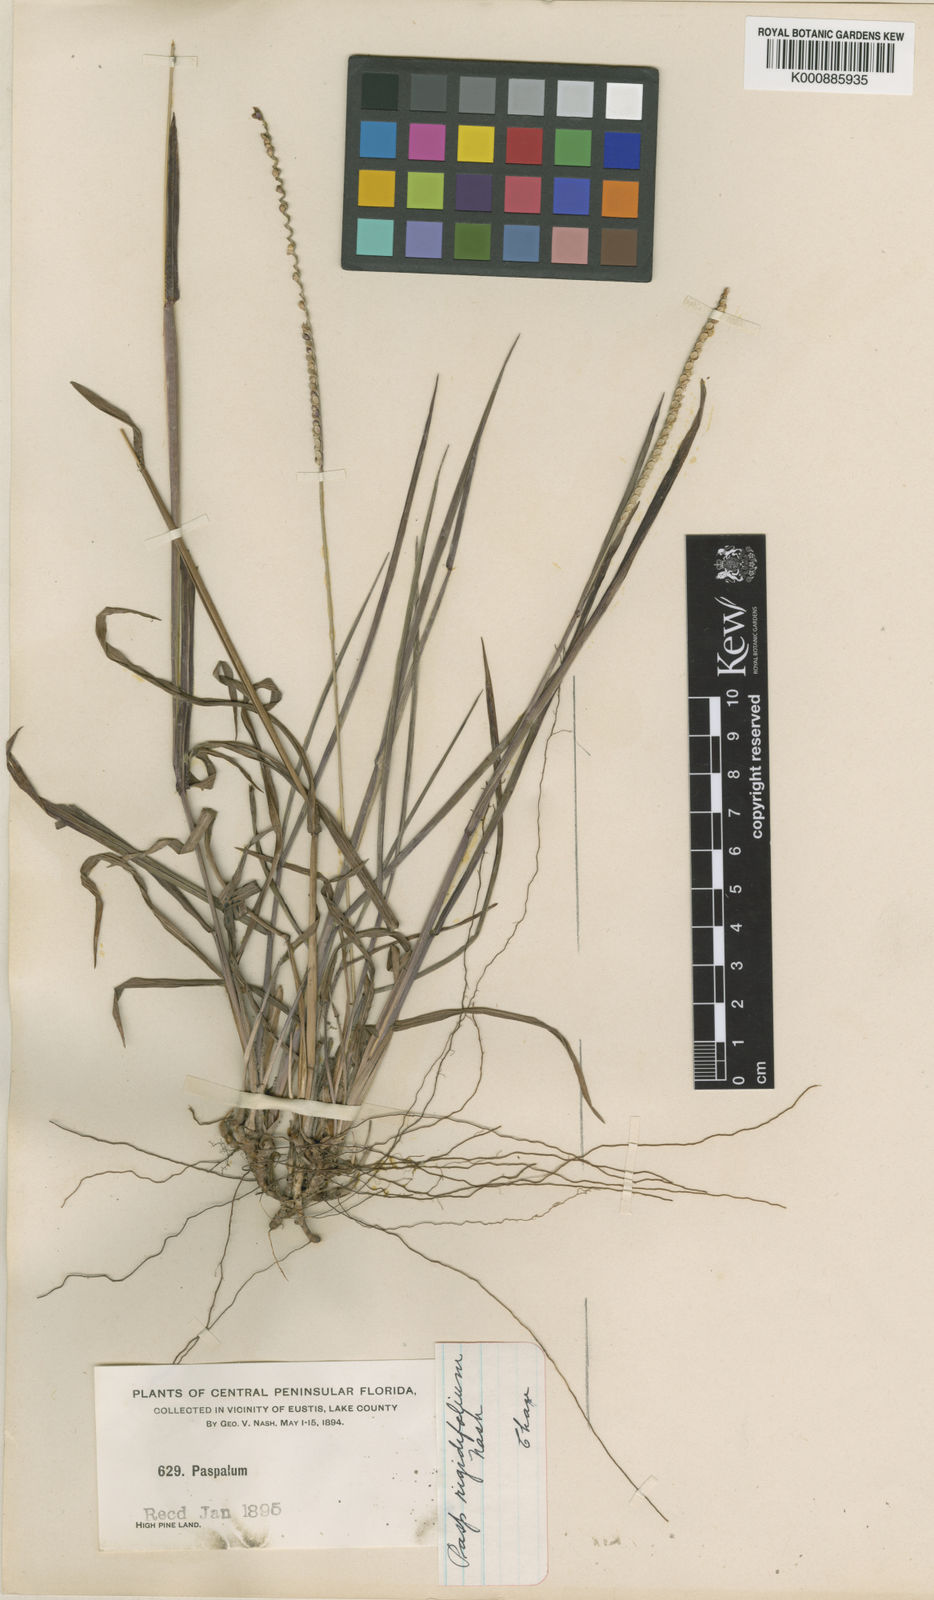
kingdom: Plantae
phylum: Tracheophyta
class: Liliopsida
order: Poales
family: Poaceae
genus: Paspalum
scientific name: Paspalum setaceum
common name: Slender paspalum
